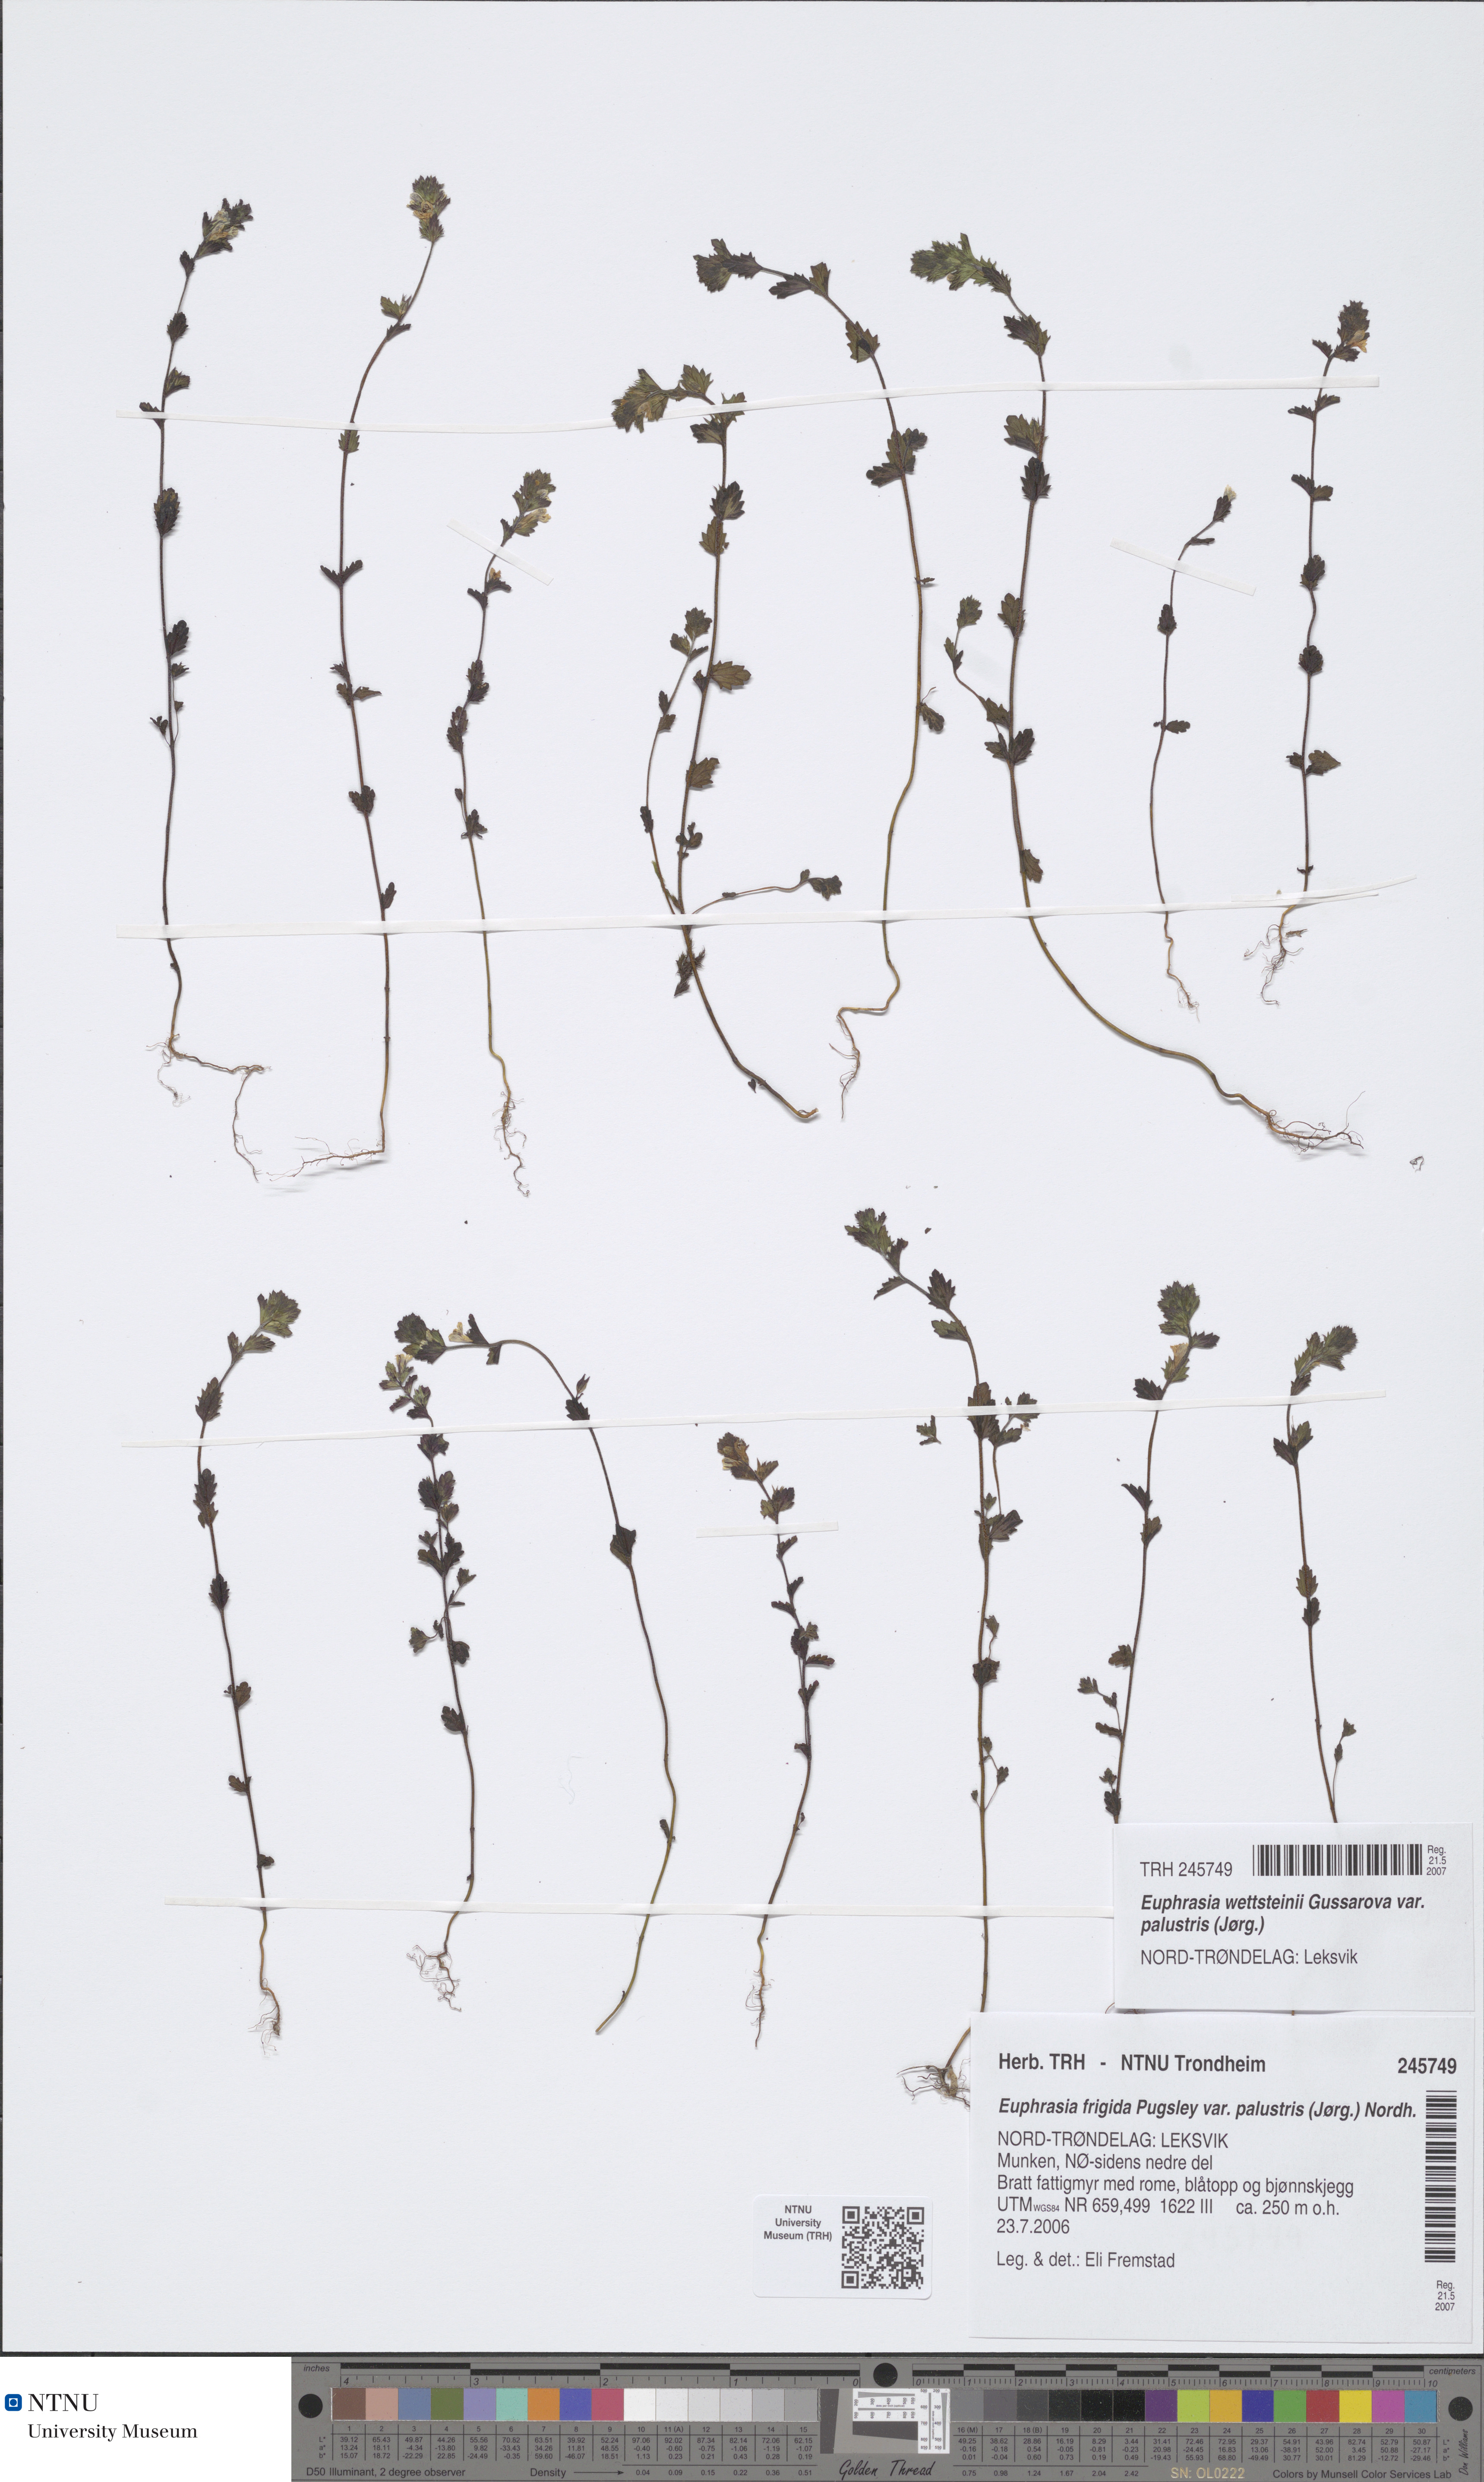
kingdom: Plantae
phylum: Tracheophyta
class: Magnoliopsida
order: Lamiales
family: Orobanchaceae
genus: Euphrasia
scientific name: Euphrasia wettsteinii
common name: Wettstein's eyebright
